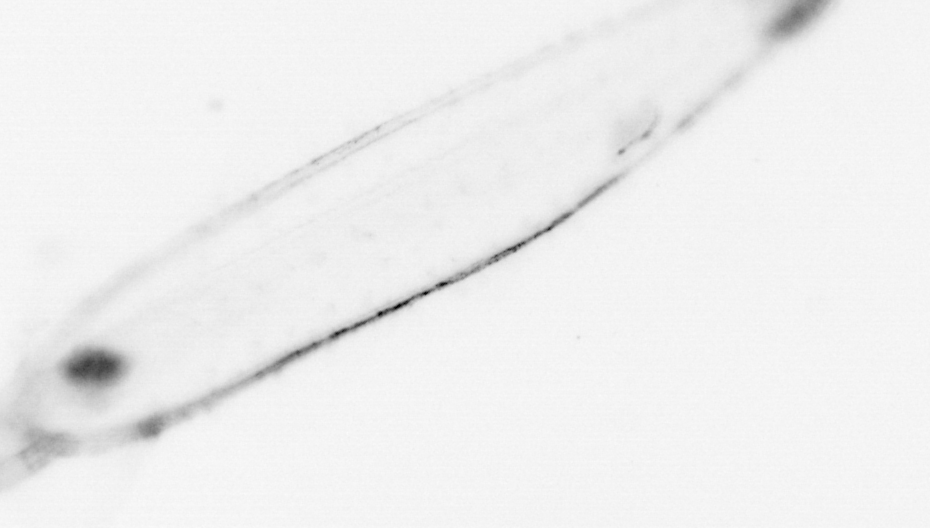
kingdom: Animalia
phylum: Chaetognatha
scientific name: Chaetognatha
